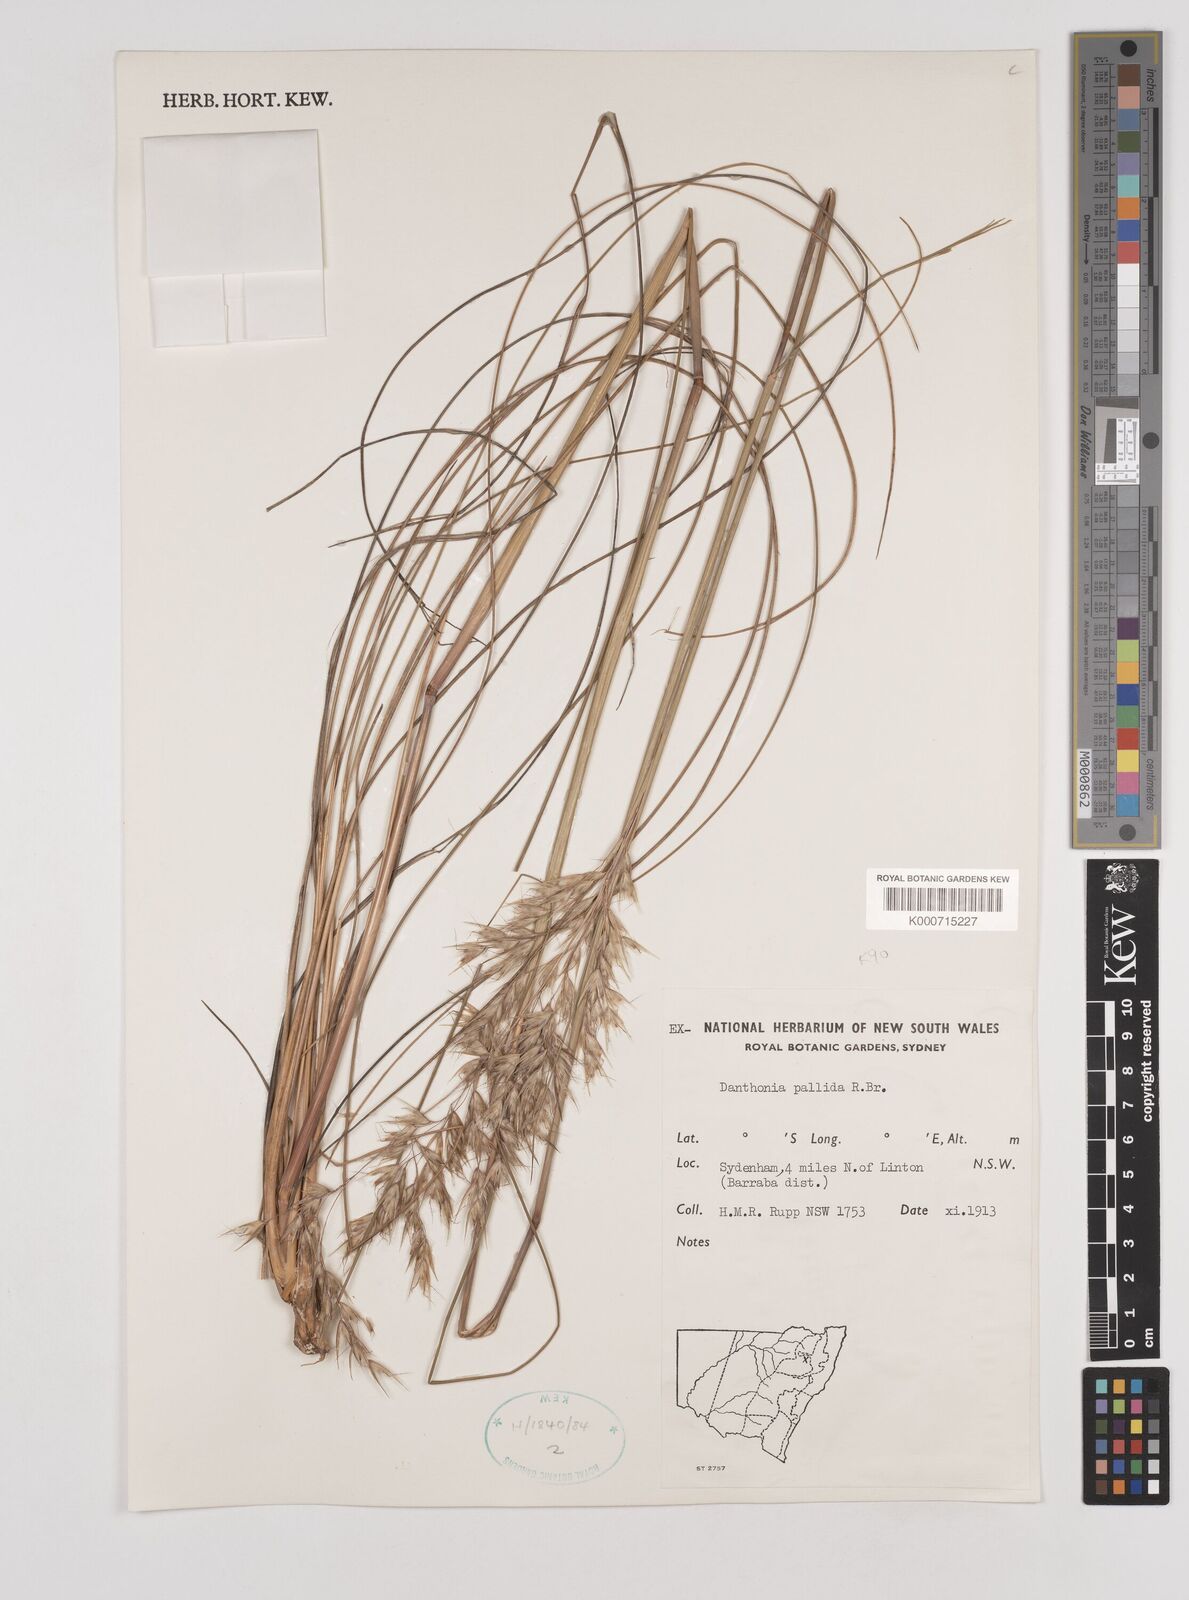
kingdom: Plantae
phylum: Tracheophyta
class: Liliopsida
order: Poales
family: Poaceae
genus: Rytidosperma
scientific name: Rytidosperma
